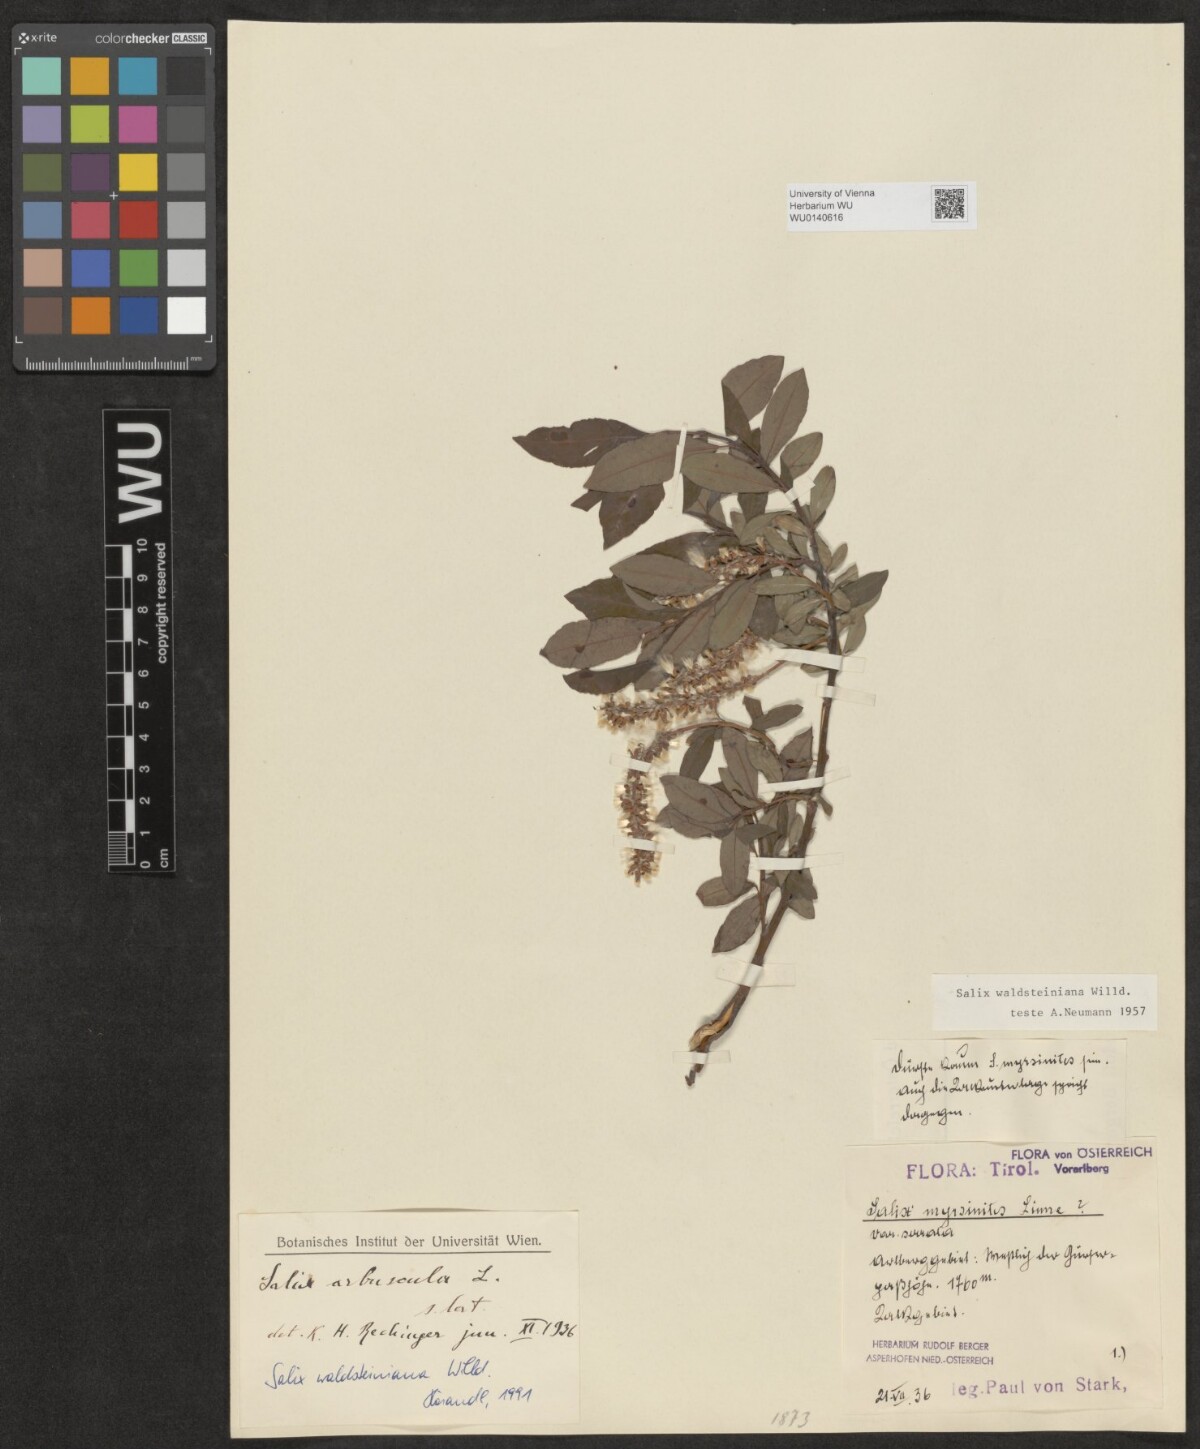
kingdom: Plantae
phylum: Tracheophyta
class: Magnoliopsida
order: Malpighiales
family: Salicaceae
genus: Salix
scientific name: Salix waldsteiniana
